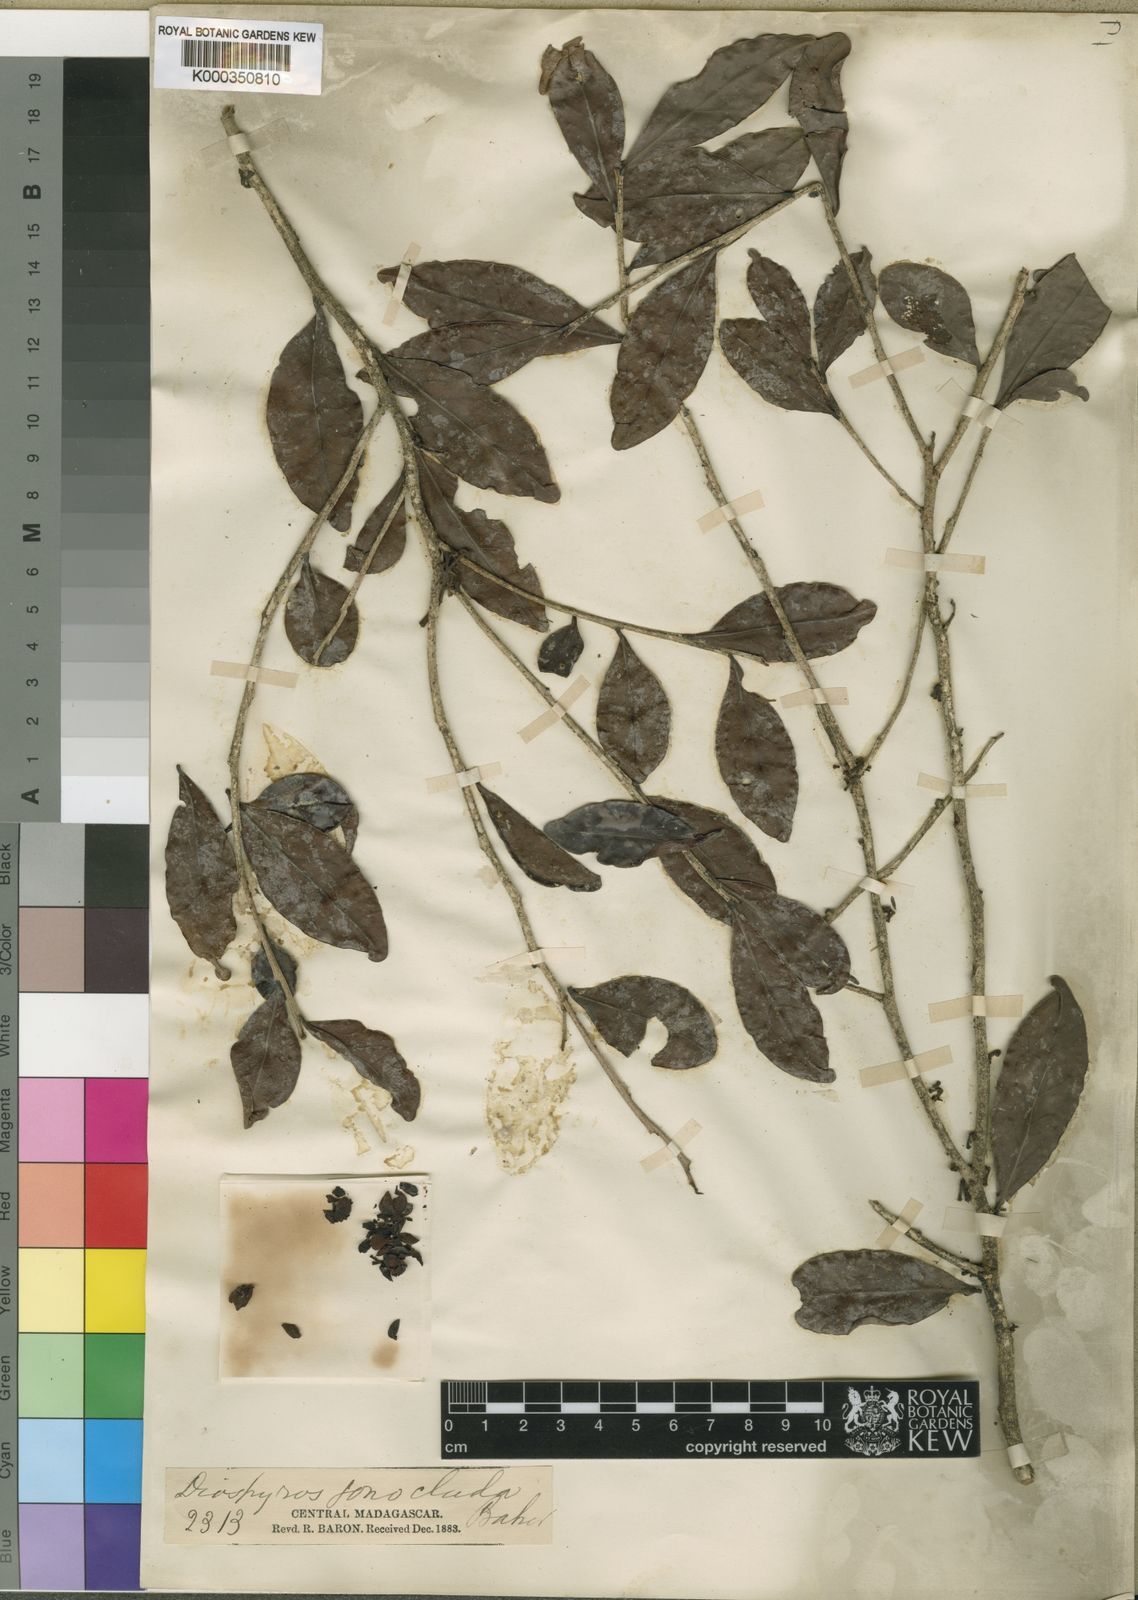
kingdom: Plantae
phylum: Tracheophyta
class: Magnoliopsida
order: Ericales
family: Ebenaceae
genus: Diospyros
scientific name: Diospyros sphaerosepala
